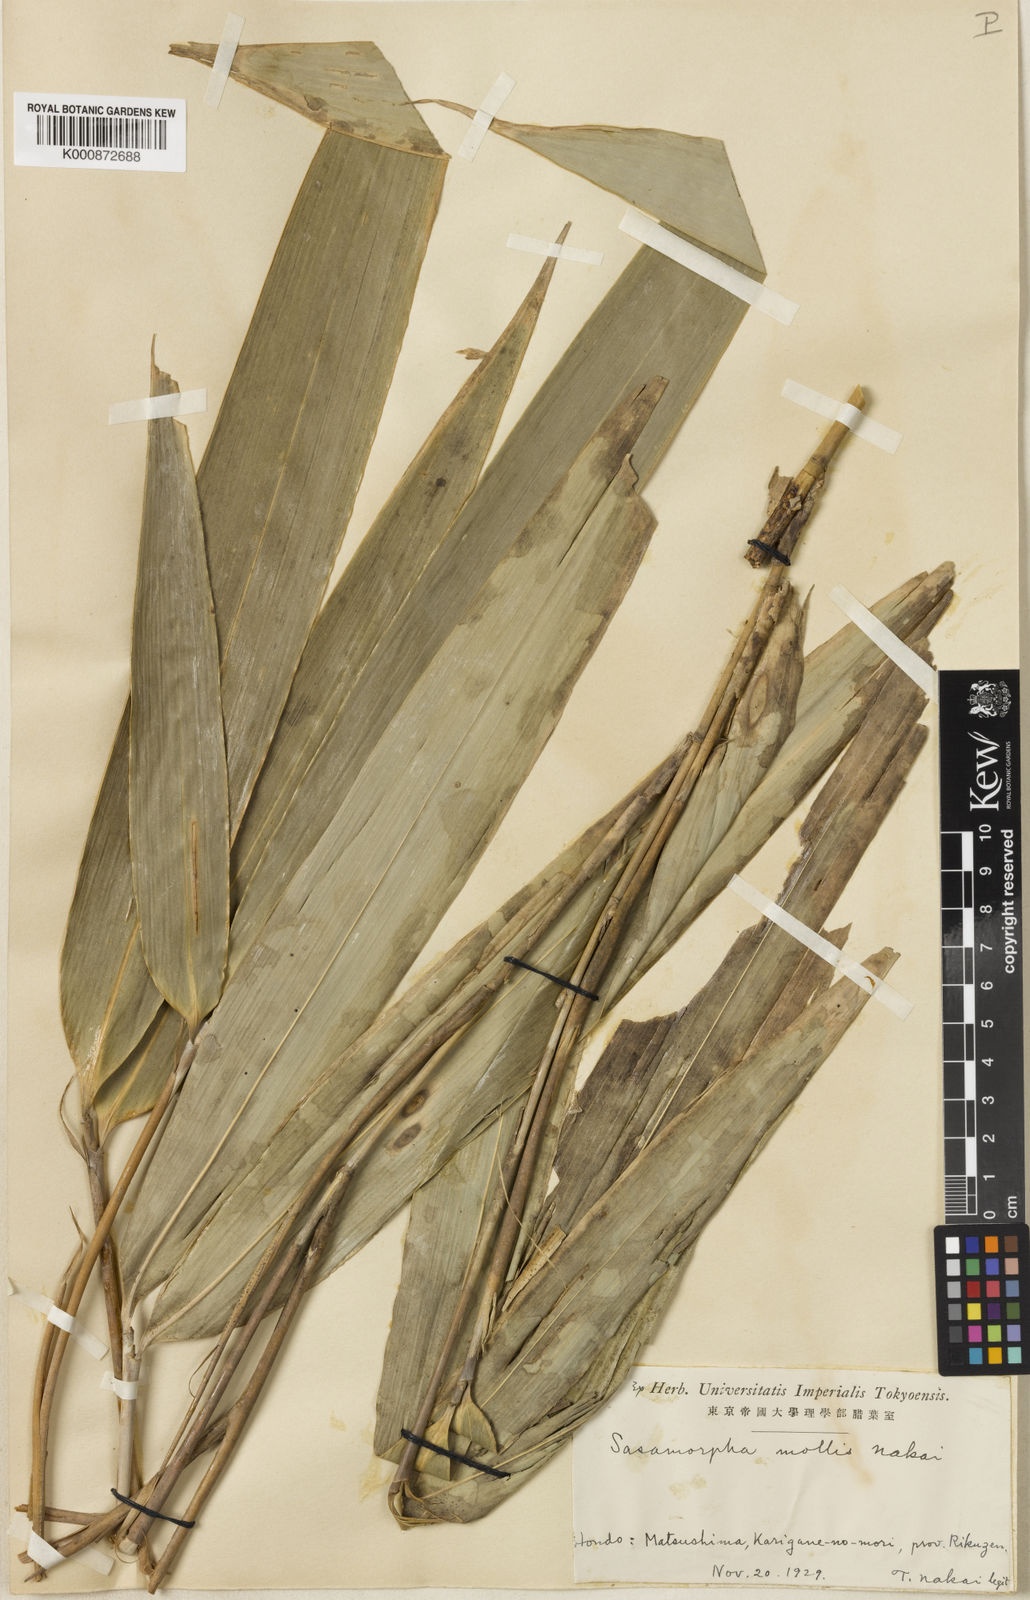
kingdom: Plantae
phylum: Tracheophyta
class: Liliopsida
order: Poales
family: Poaceae
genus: Sasa
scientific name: Sasa chartacea
